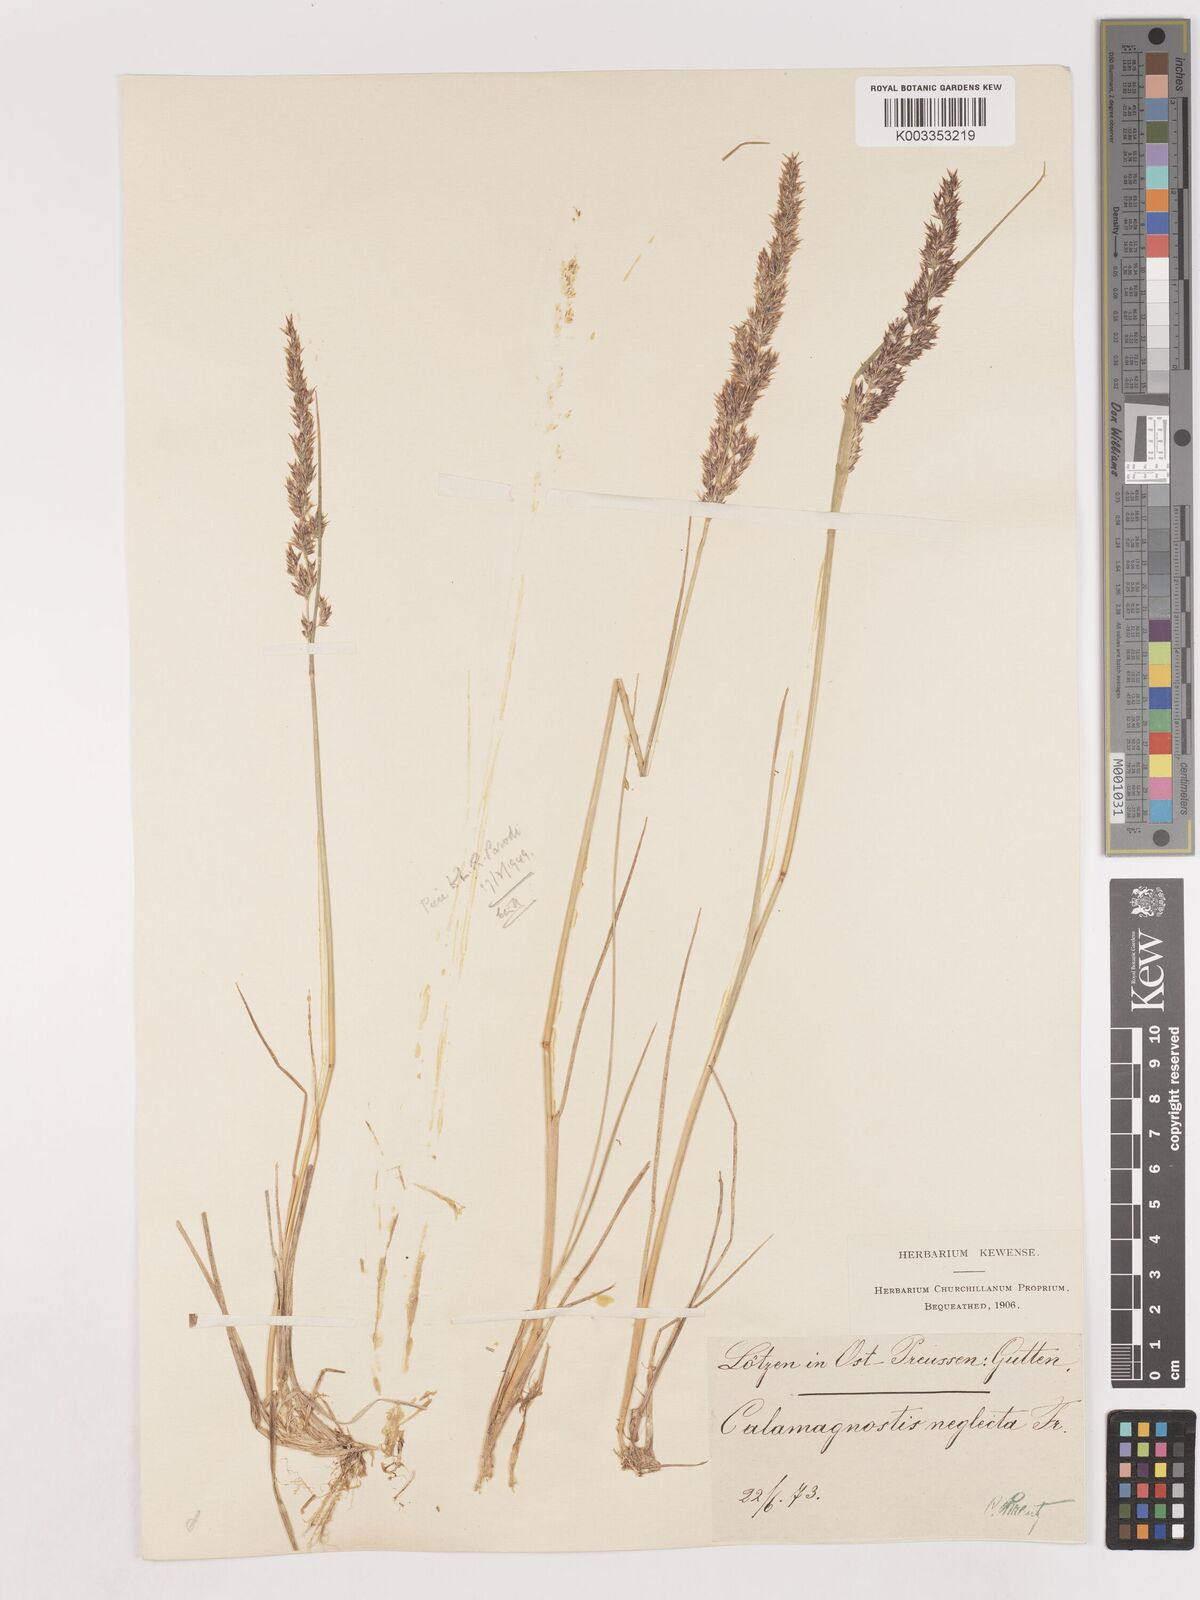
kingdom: Plantae
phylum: Tracheophyta
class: Liliopsida
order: Poales
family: Poaceae
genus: Cinnagrostis
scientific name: Cinnagrostis recta
